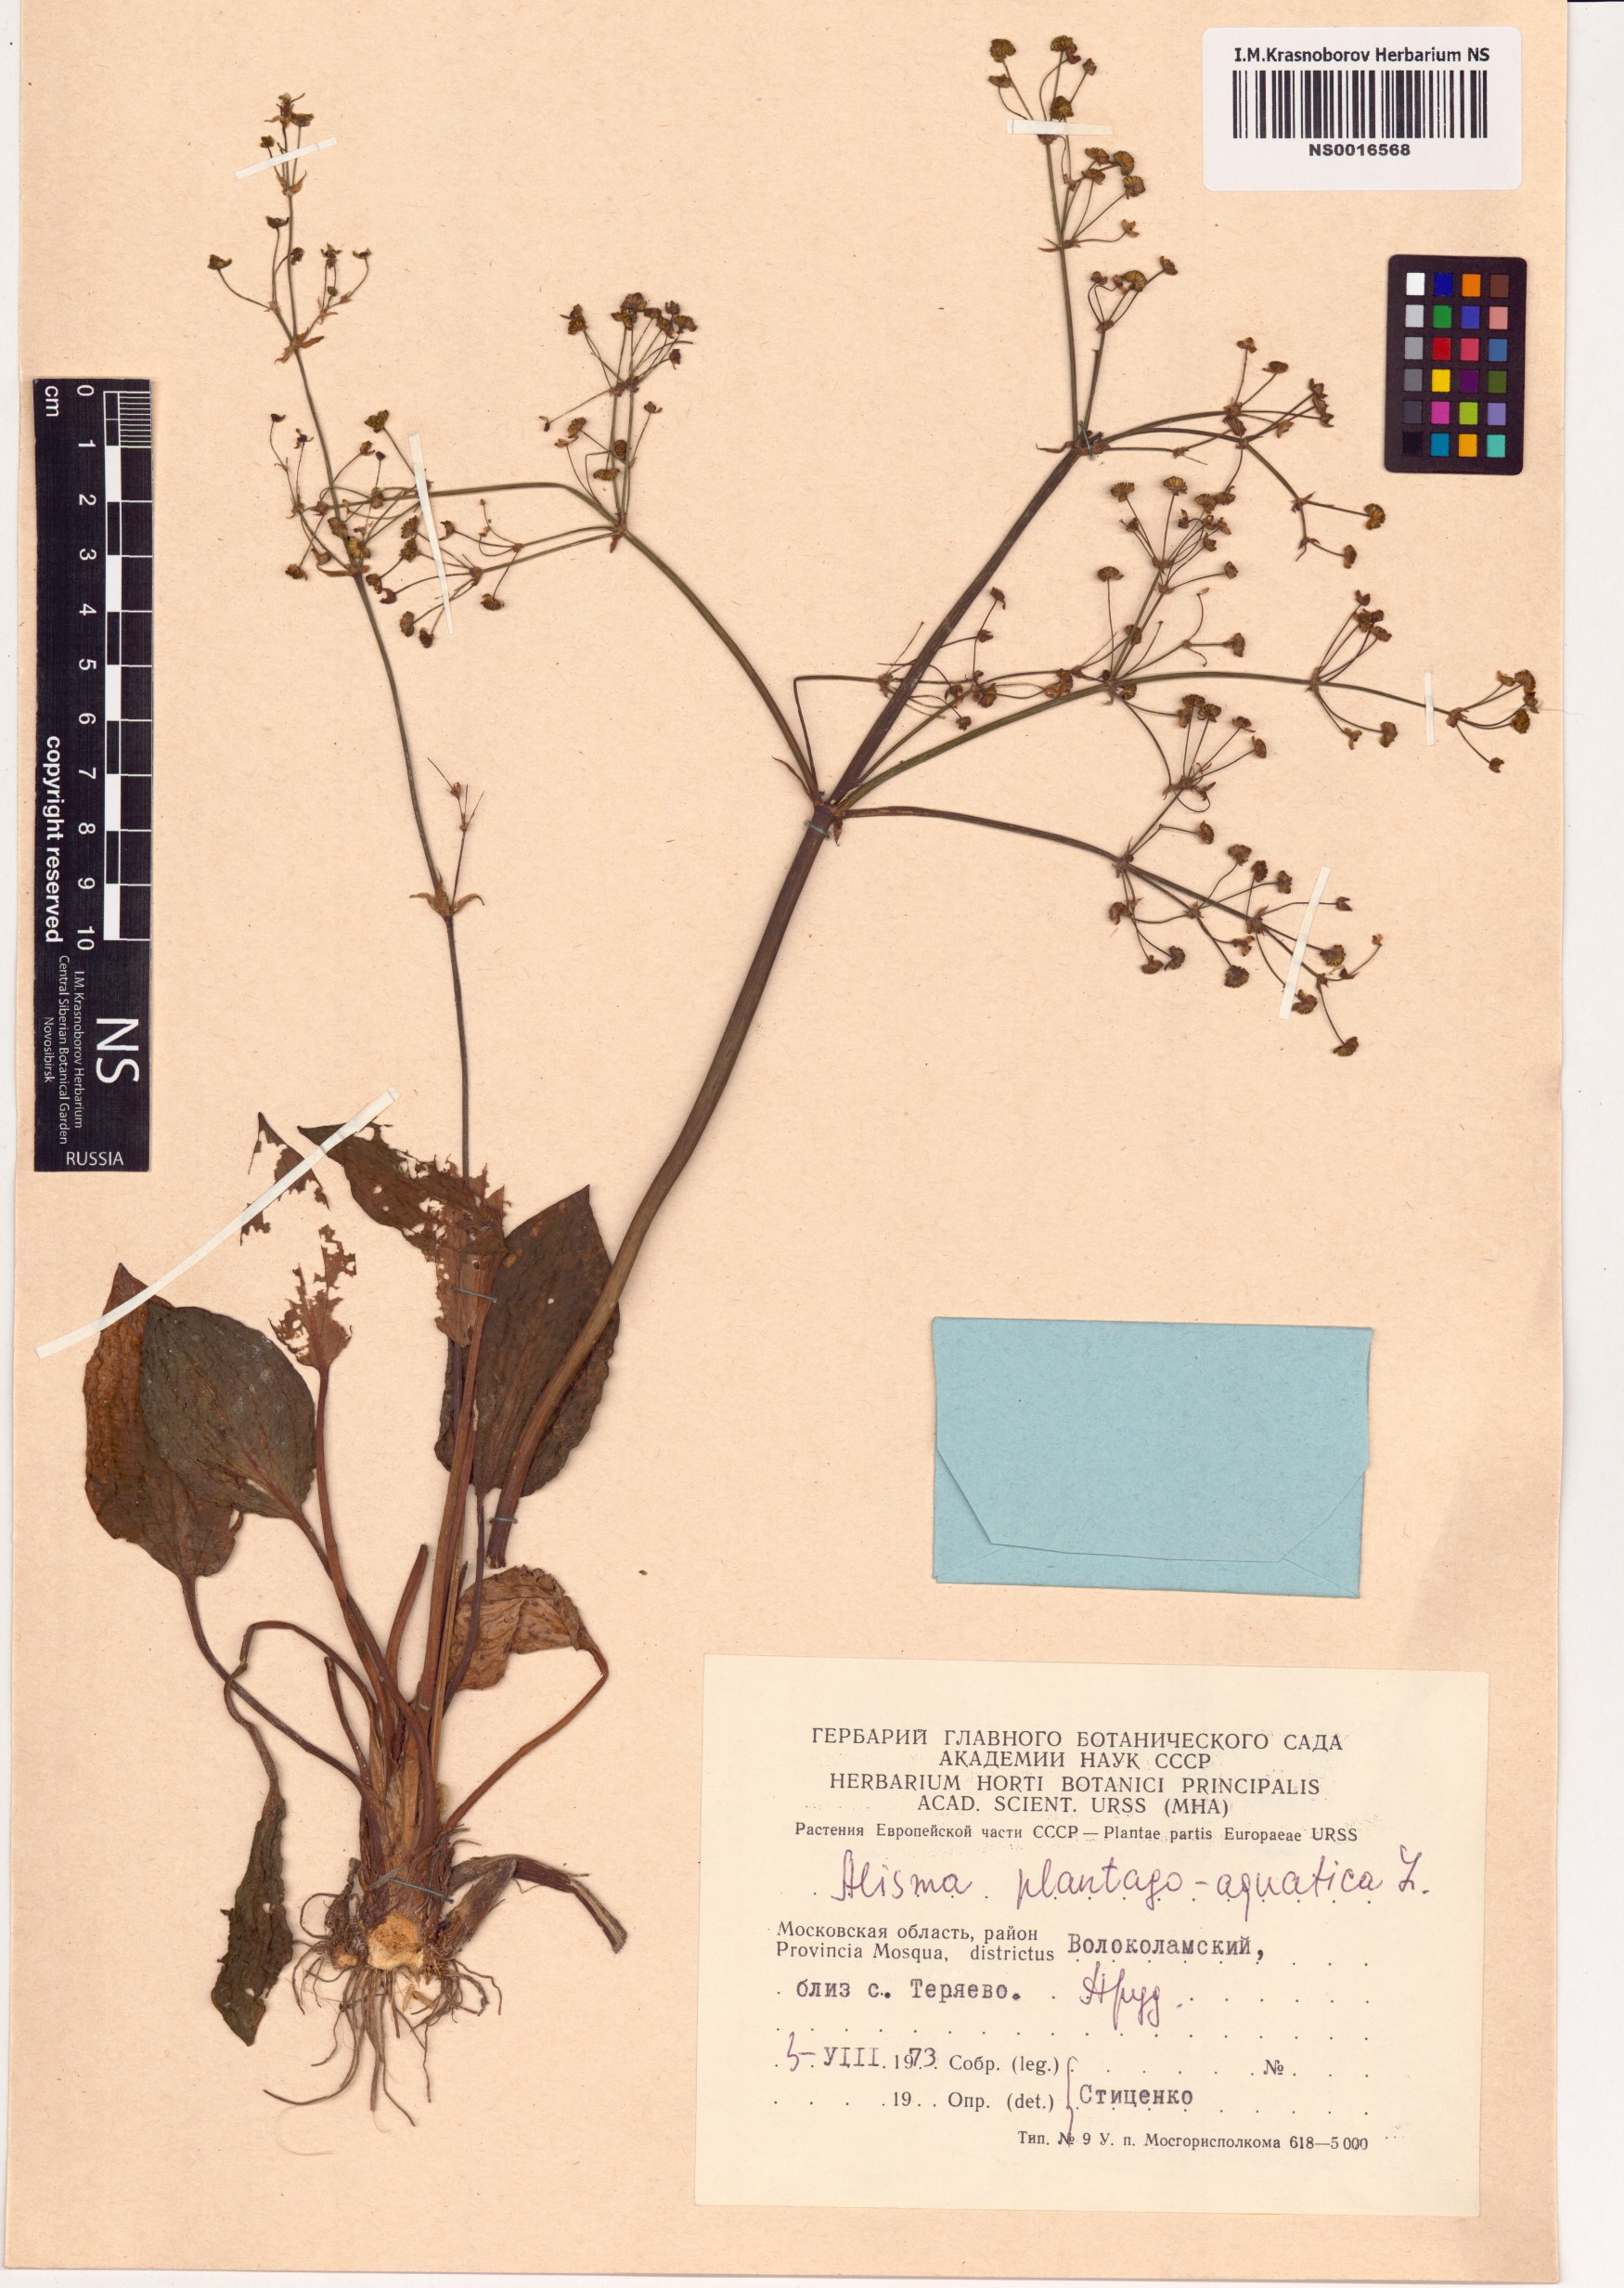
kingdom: Plantae
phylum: Tracheophyta
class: Liliopsida
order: Alismatales
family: Alismataceae
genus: Alisma
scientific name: Alisma plantago-aquatica
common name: Water-plantain
